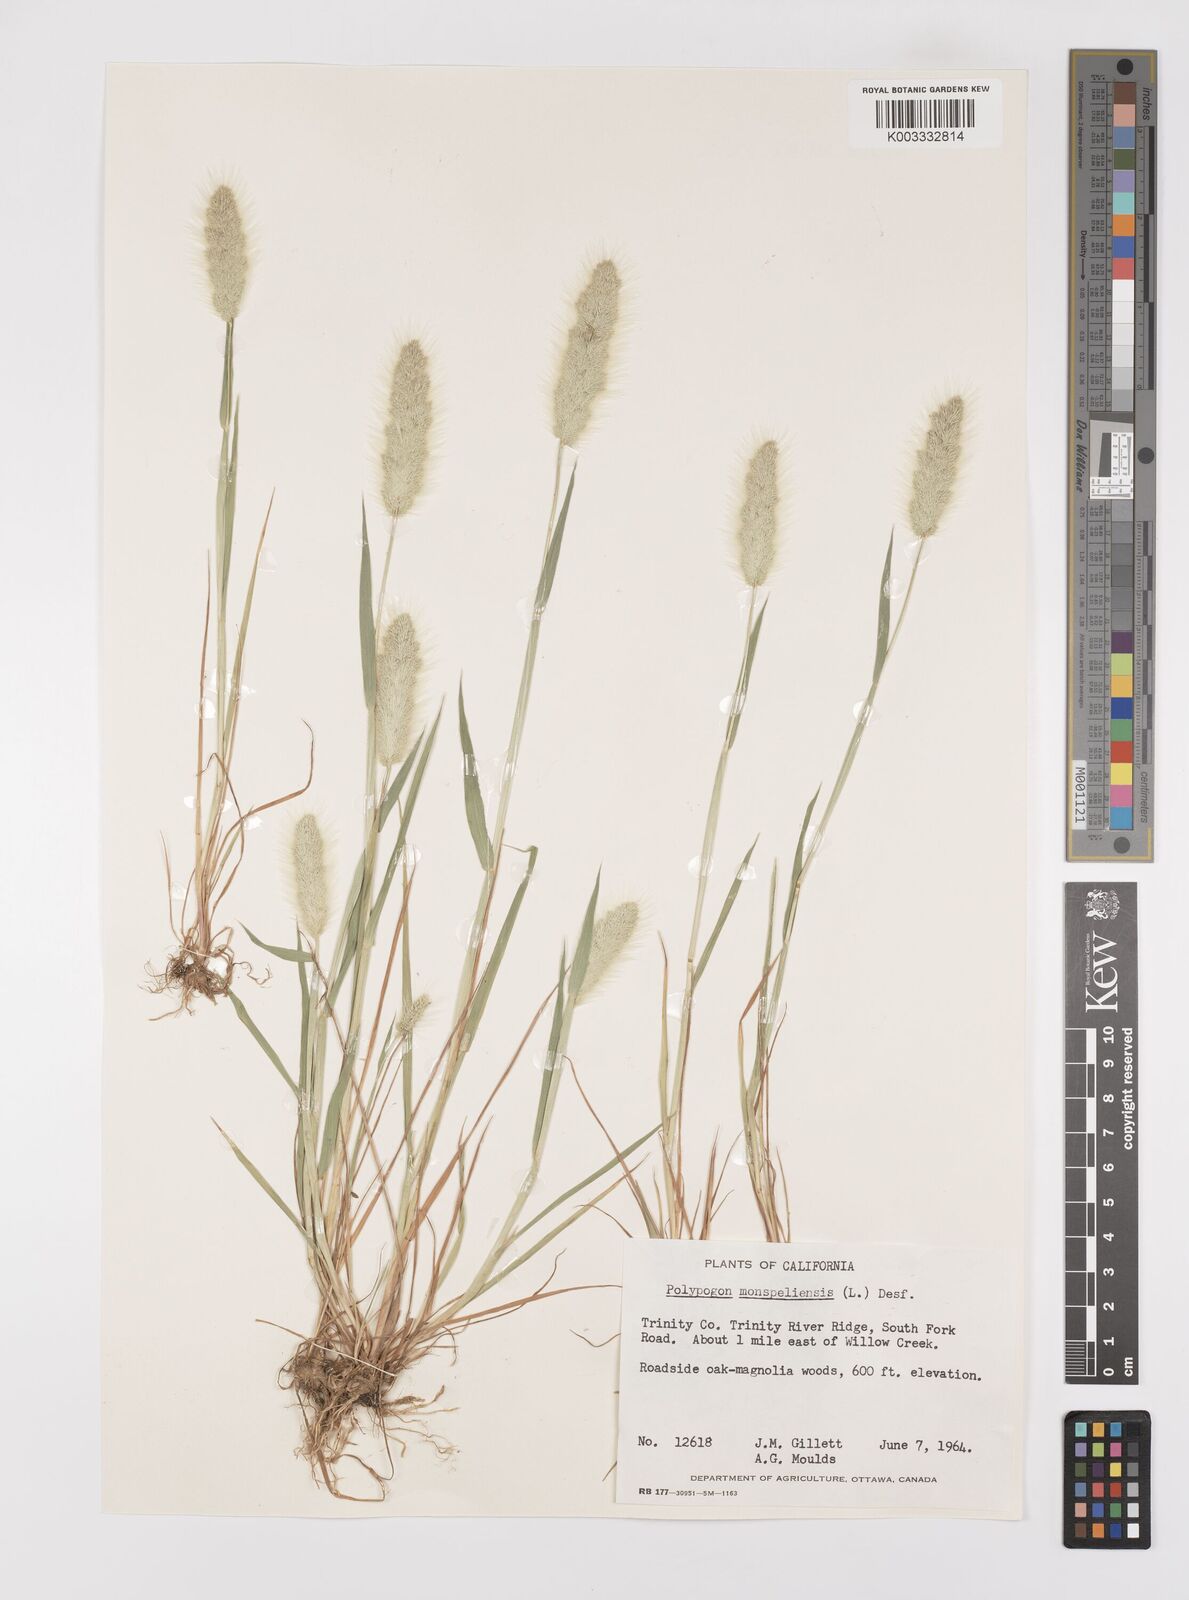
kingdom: Plantae
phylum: Tracheophyta
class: Liliopsida
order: Poales
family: Poaceae
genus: Polypogon
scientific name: Polypogon monspeliensis
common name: Annual rabbitsfoot grass
